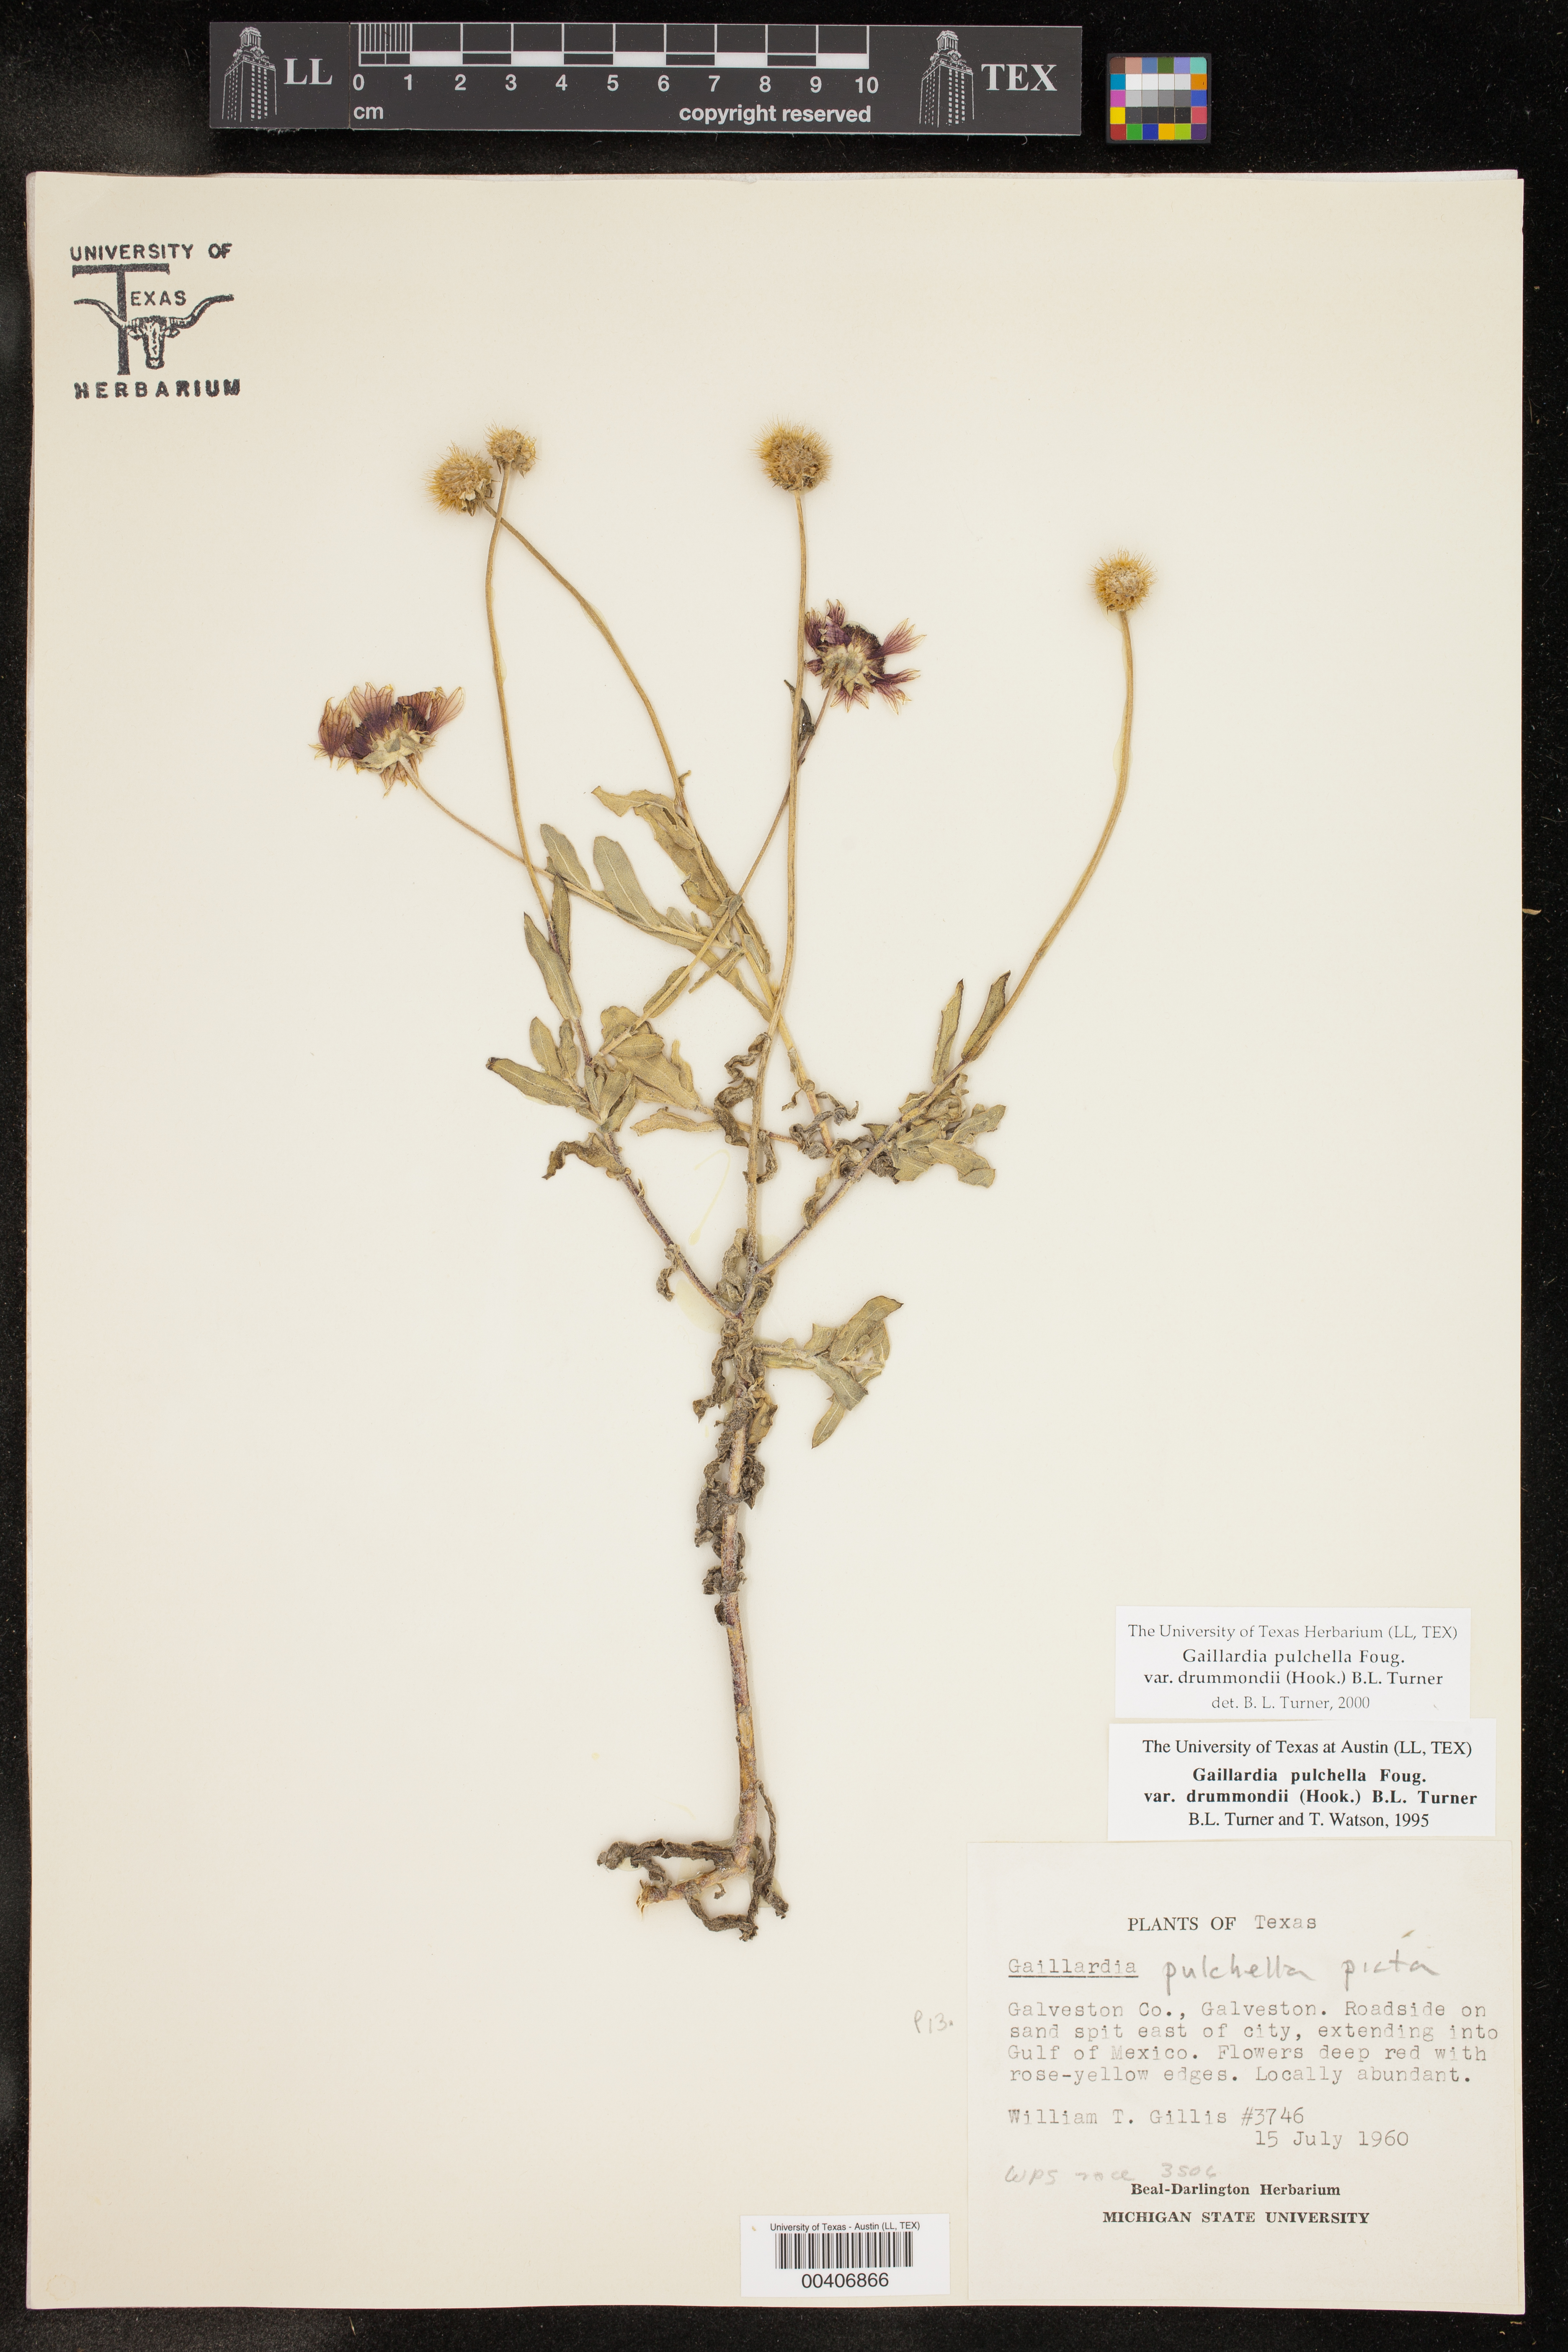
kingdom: Plantae
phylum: Tracheophyta
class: Magnoliopsida
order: Asterales
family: Asteraceae
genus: Gaillardia
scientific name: Gaillardia pulchella
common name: Firewheel
